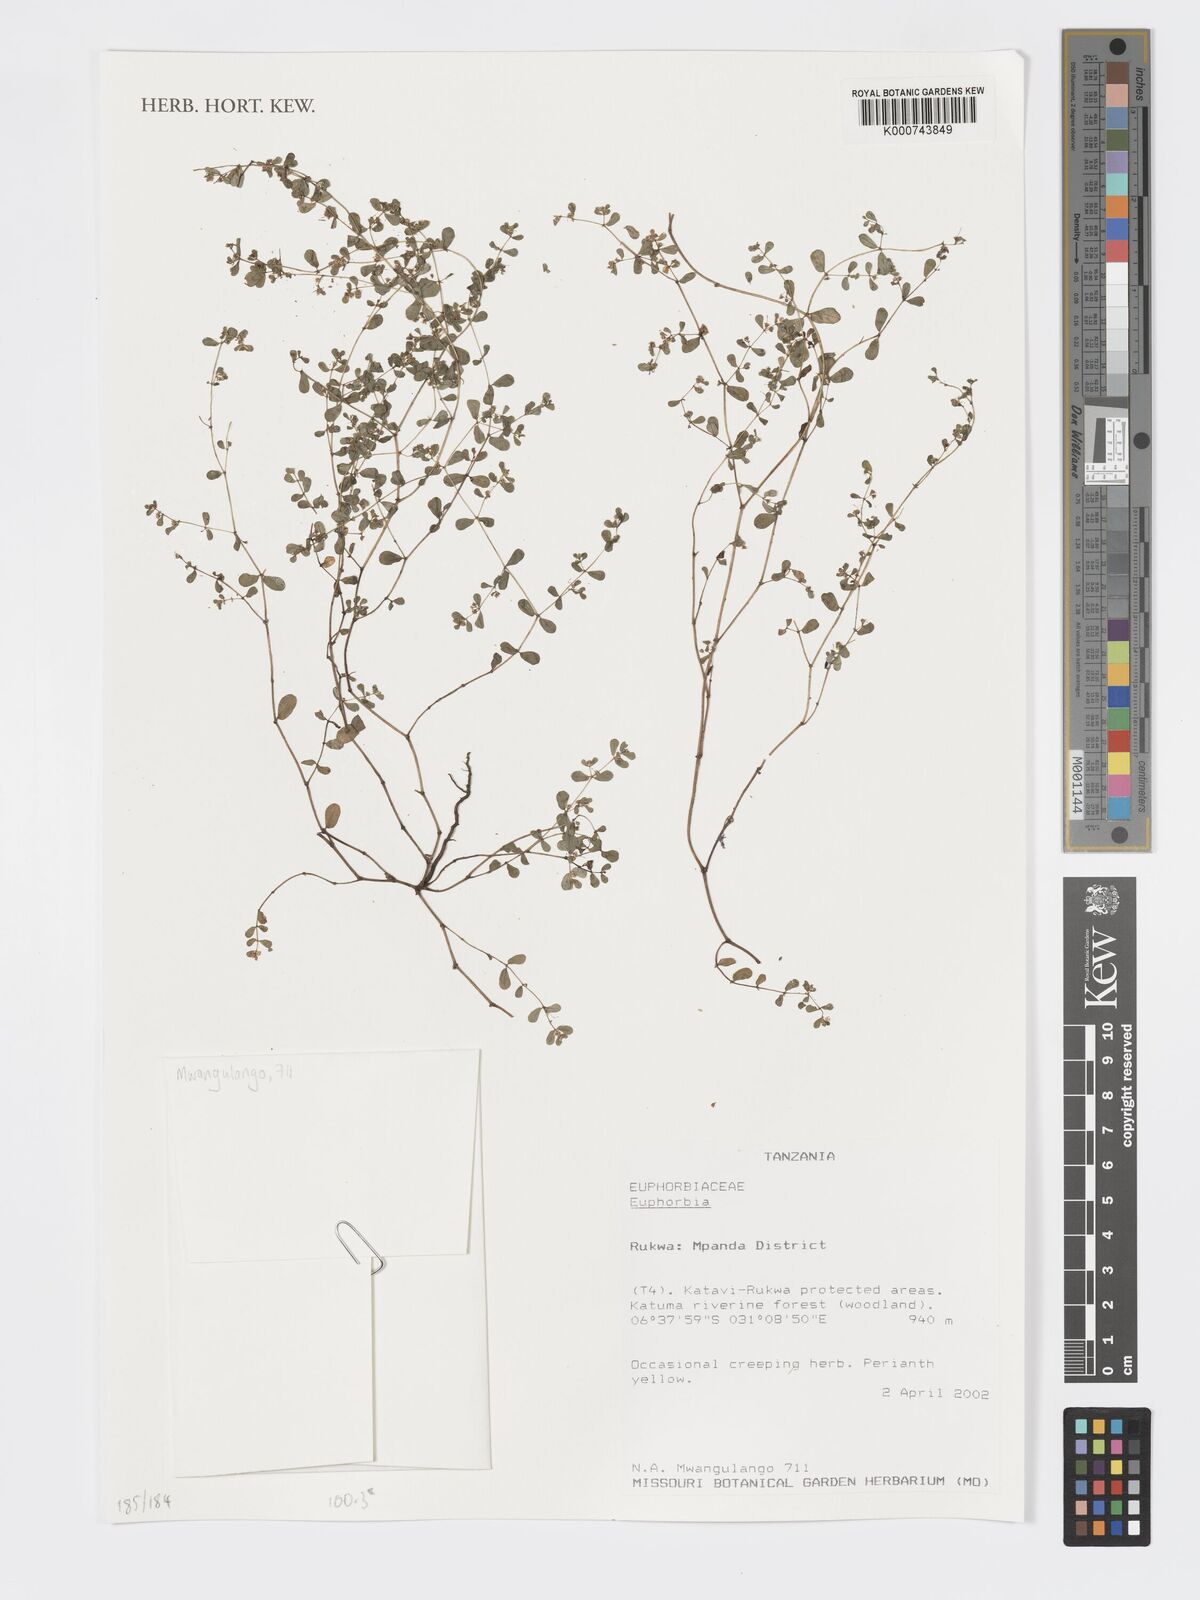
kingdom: Plantae
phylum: Tracheophyta
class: Magnoliopsida
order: Malpighiales
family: Euphorbiaceae
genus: Euphorbia
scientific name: Euphorbia
